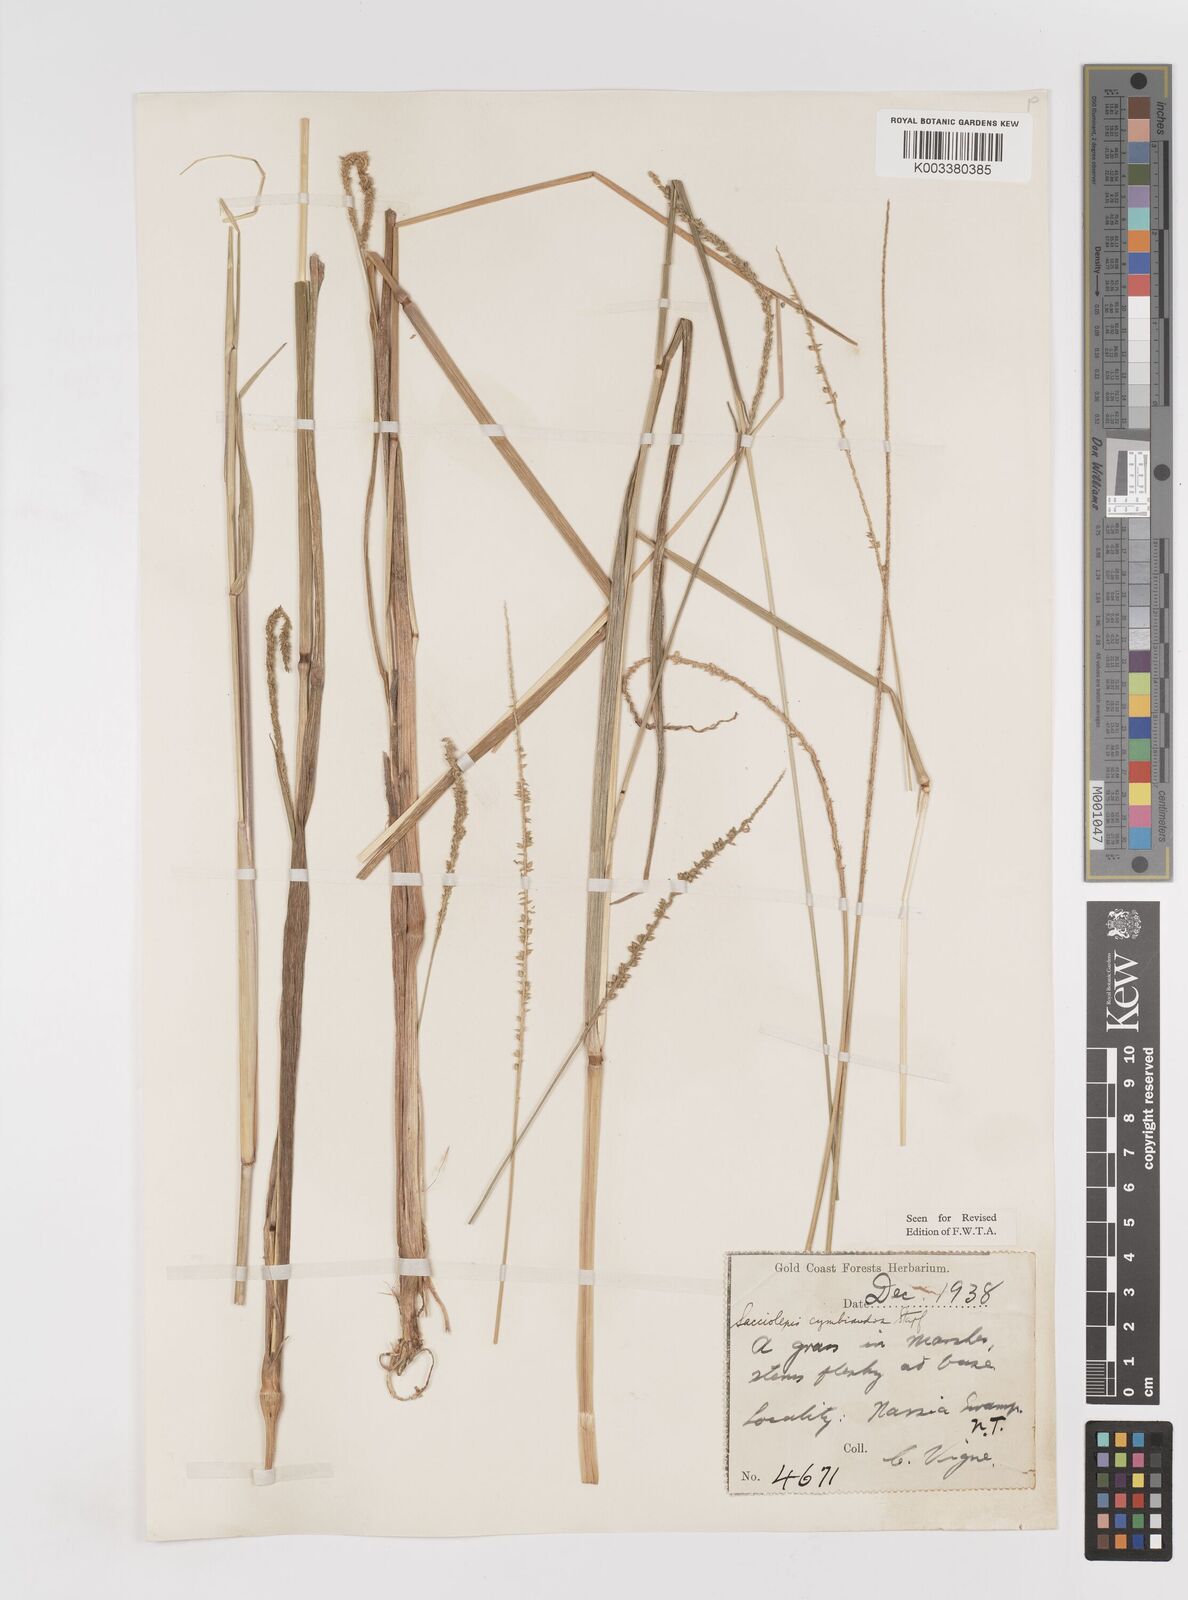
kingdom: Plantae
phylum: Tracheophyta
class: Liliopsida
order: Poales
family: Poaceae
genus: Sacciolepis
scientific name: Sacciolepis cymbiandra
